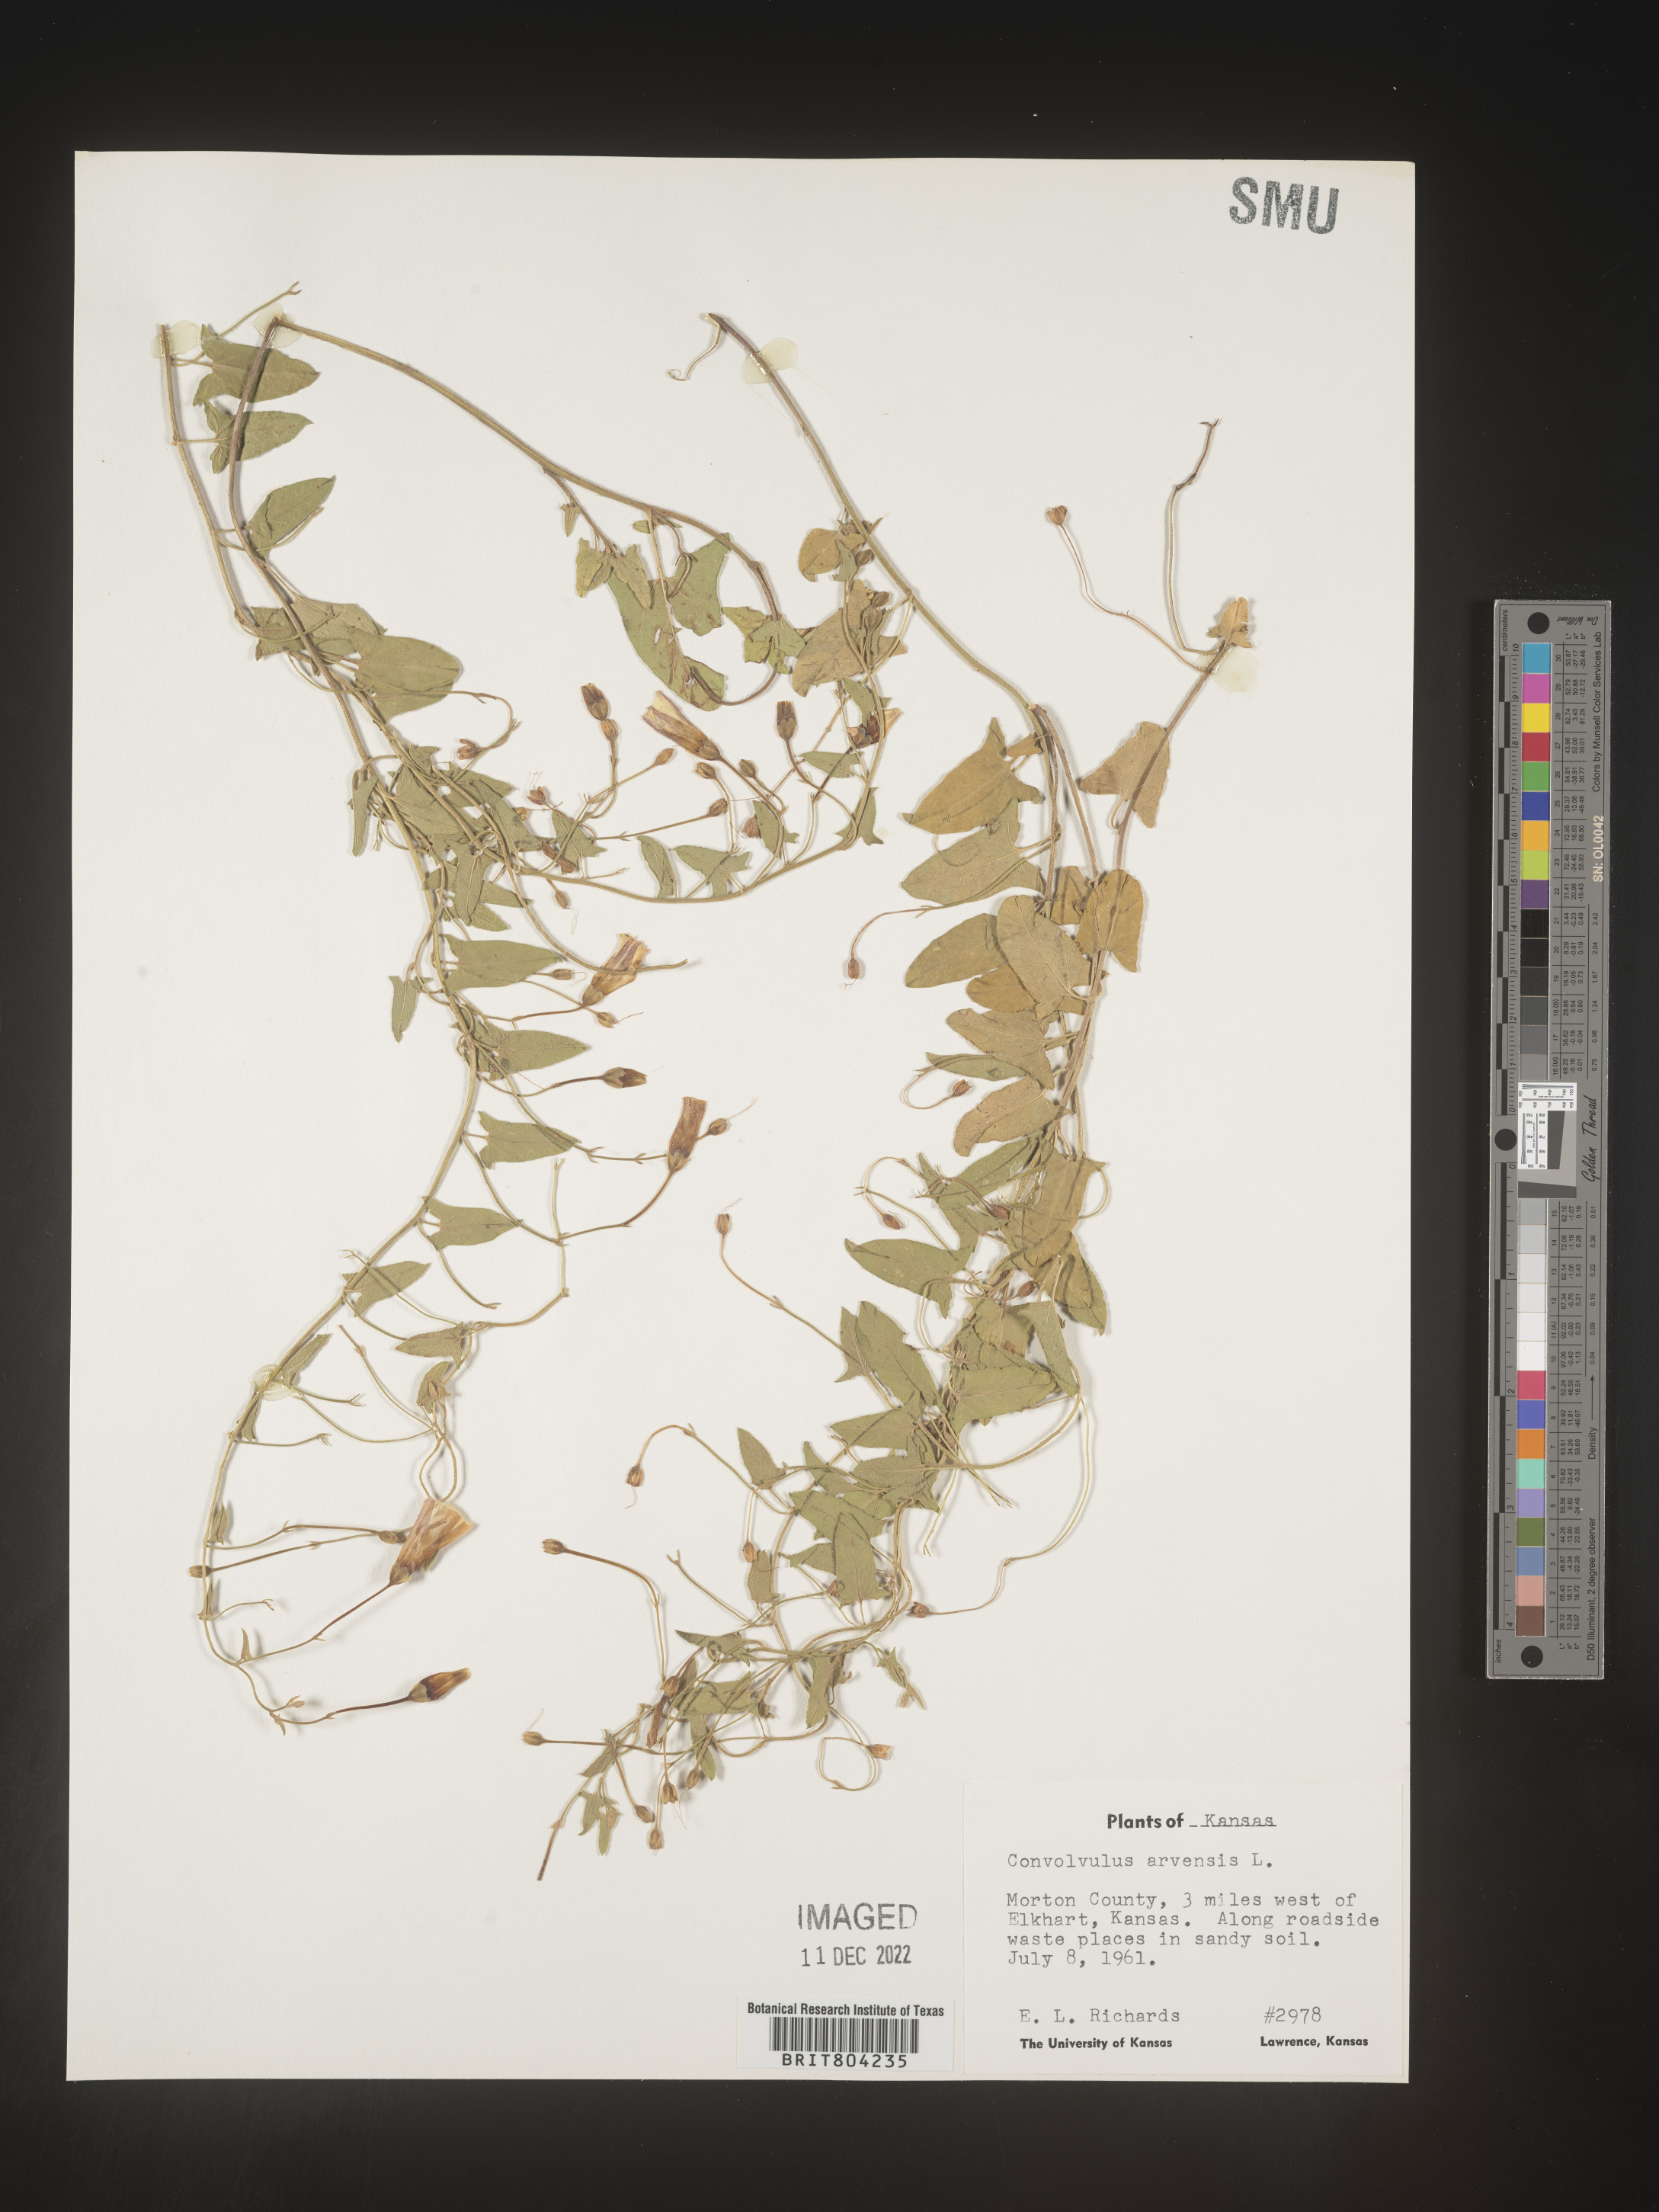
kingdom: Plantae
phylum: Tracheophyta
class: Magnoliopsida
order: Solanales
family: Convolvulaceae
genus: Convolvulus
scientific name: Convolvulus arvensis
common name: Field bindweed
